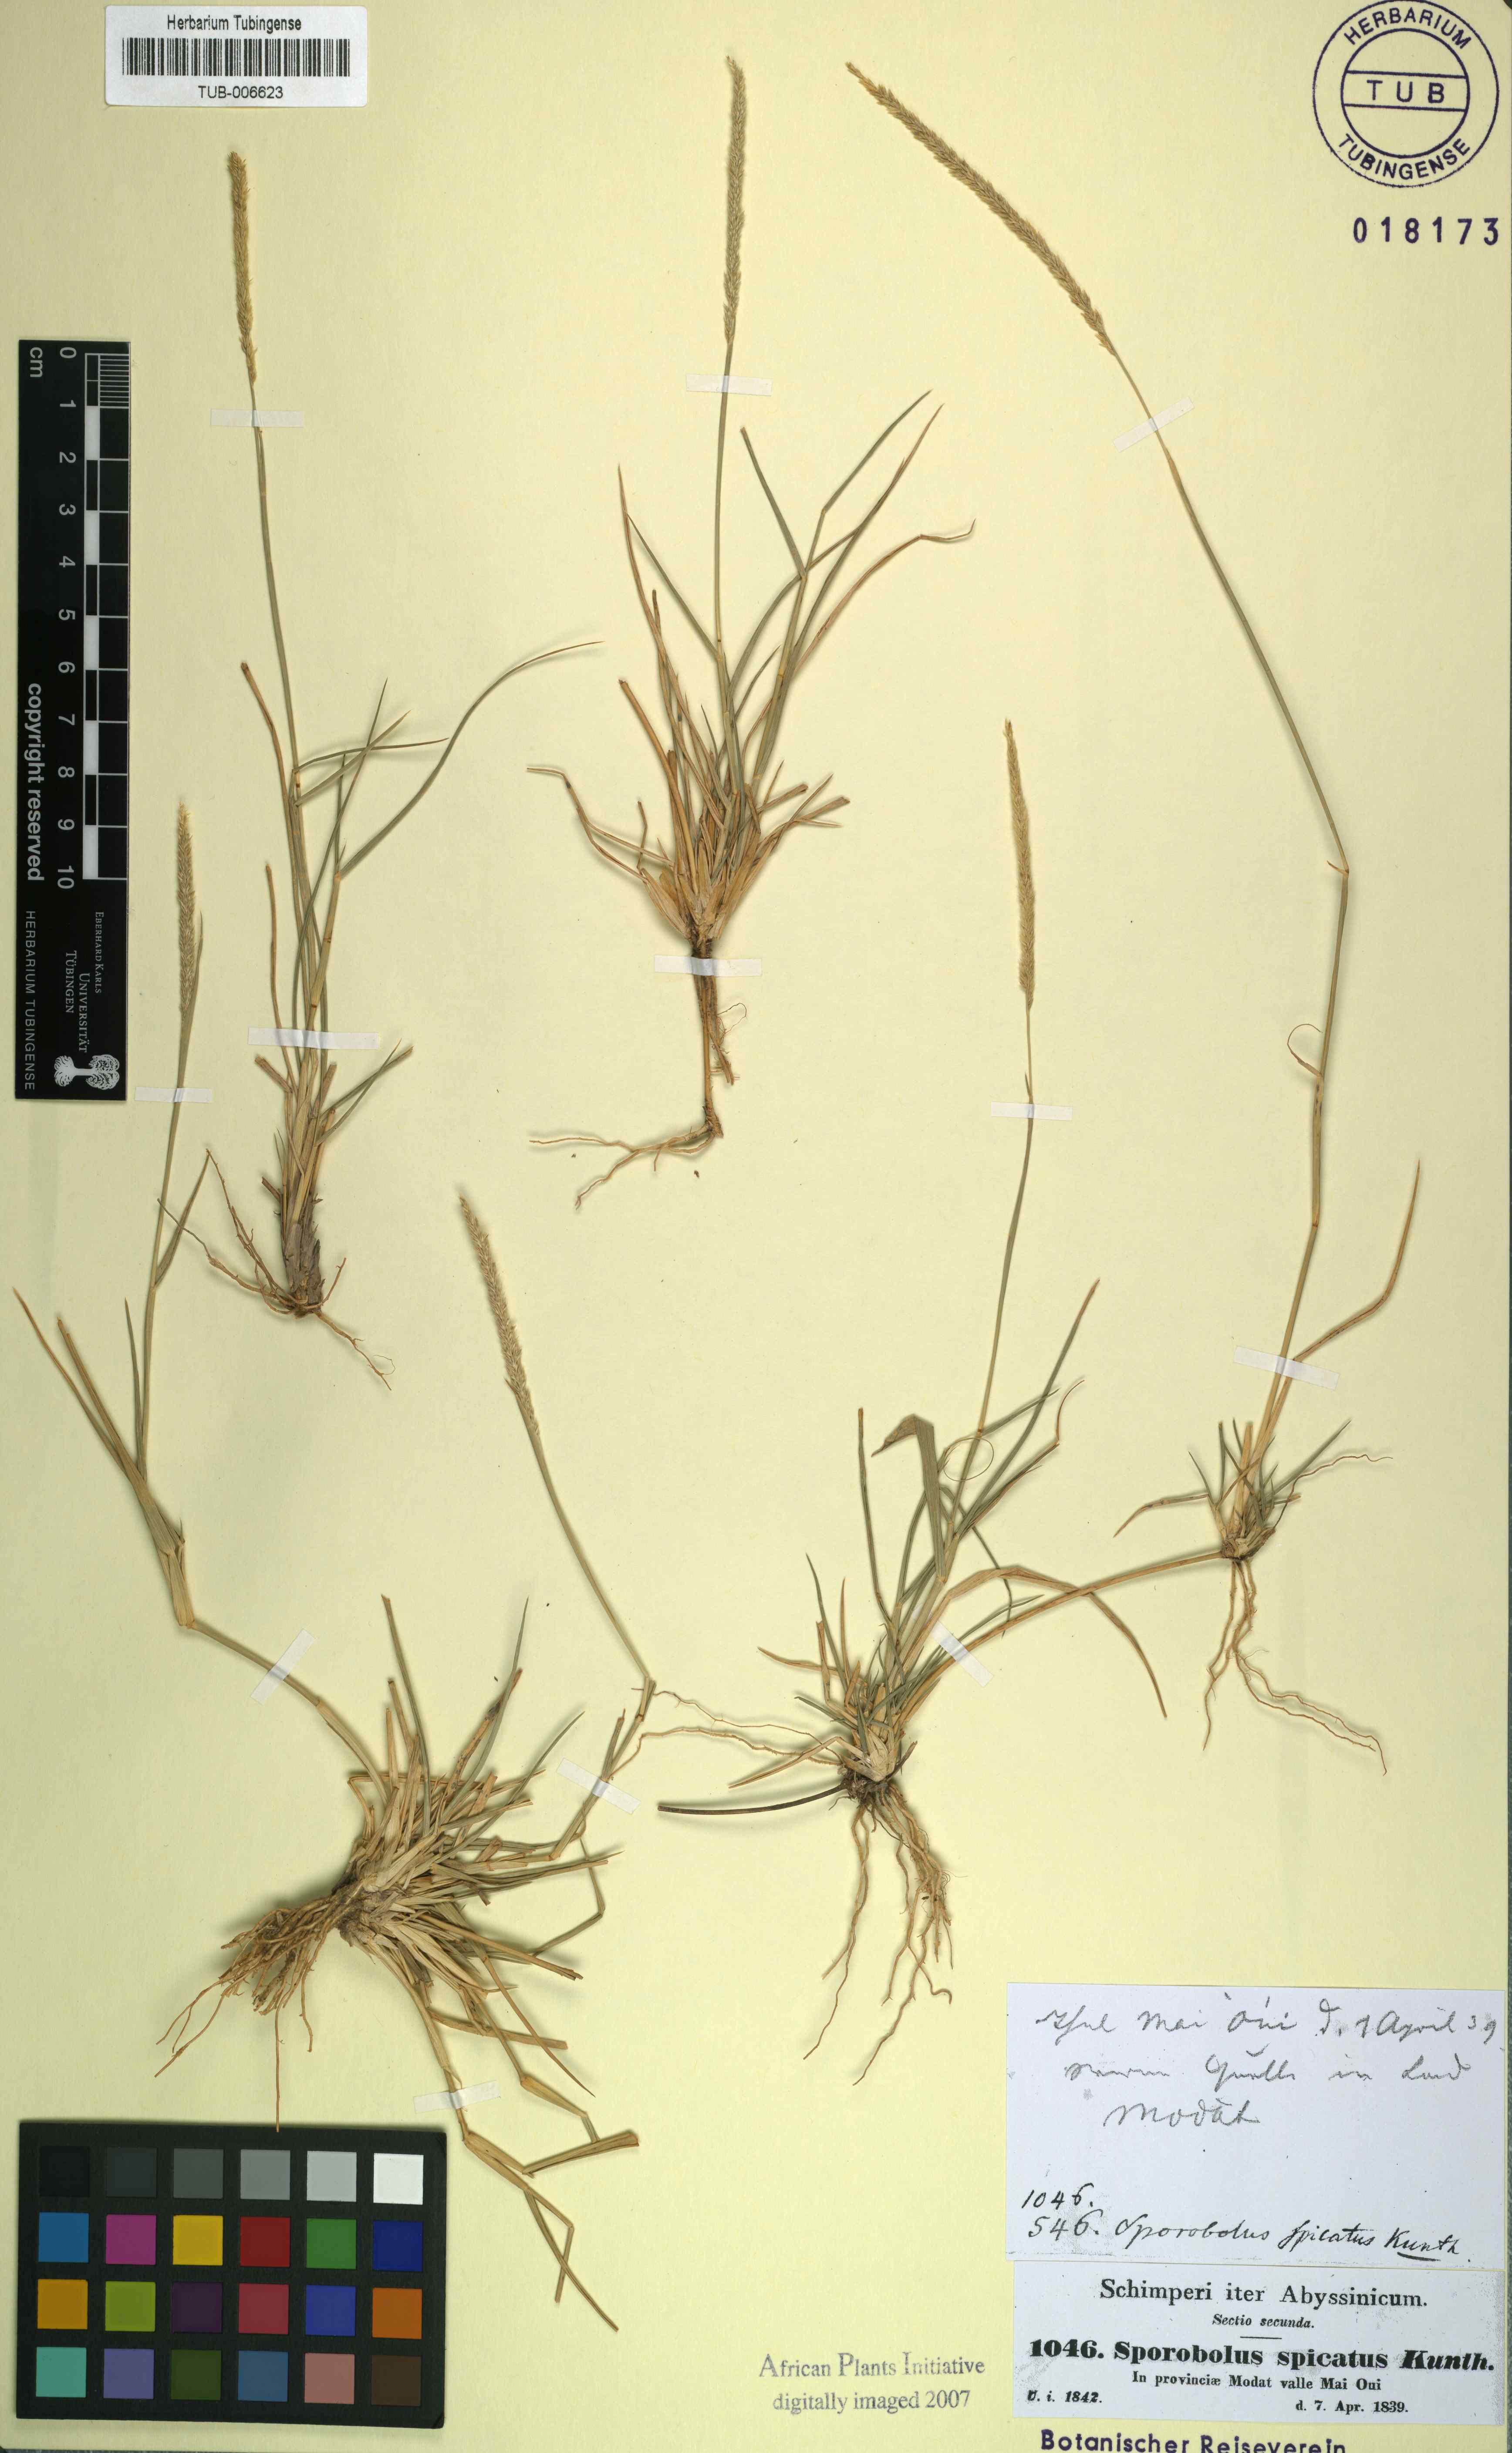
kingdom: Plantae
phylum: Tracheophyta
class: Liliopsida
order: Poales
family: Poaceae
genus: Sporobolus
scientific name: Sporobolus spicatus
